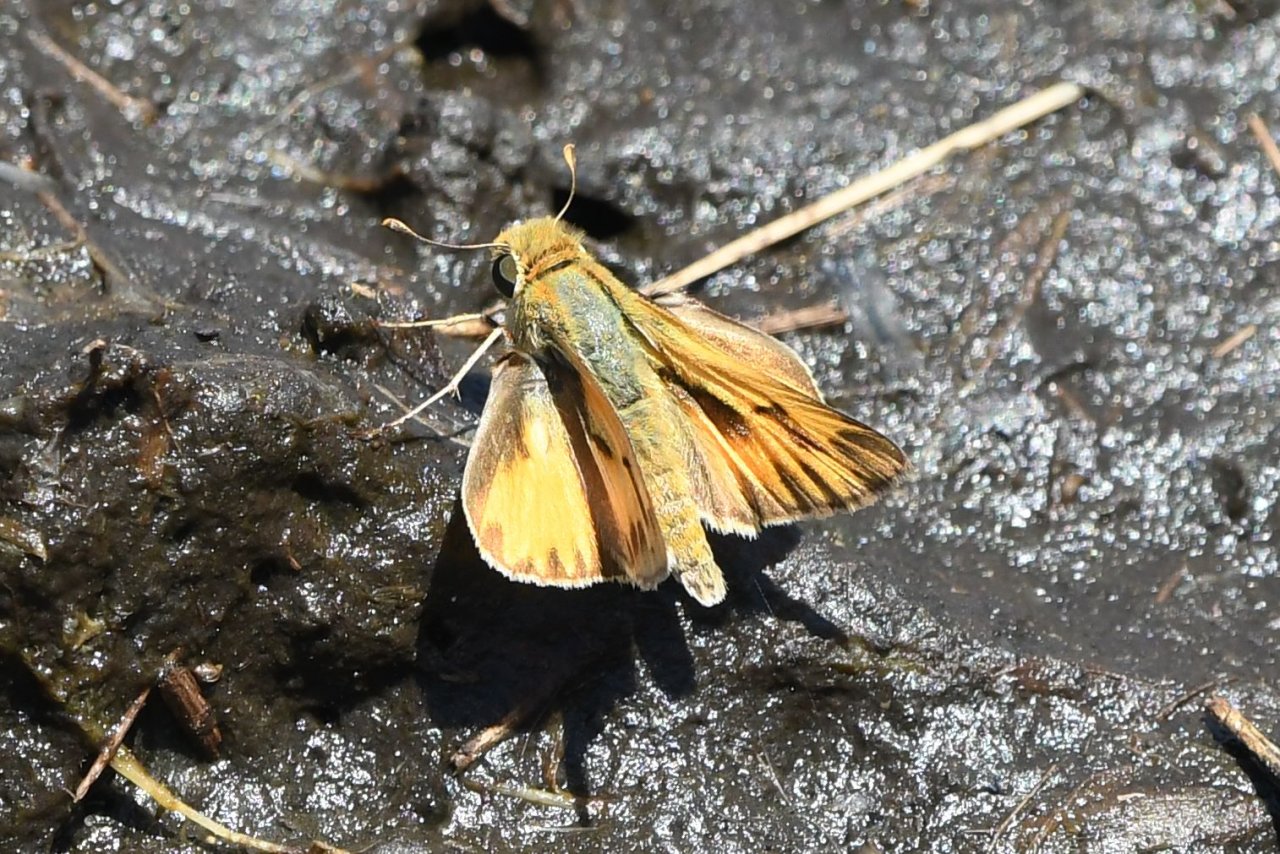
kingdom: Animalia
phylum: Arthropoda
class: Insecta
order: Lepidoptera
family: Hesperiidae
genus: Hylephila
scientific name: Hylephila phyleus
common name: Fiery Skipper
